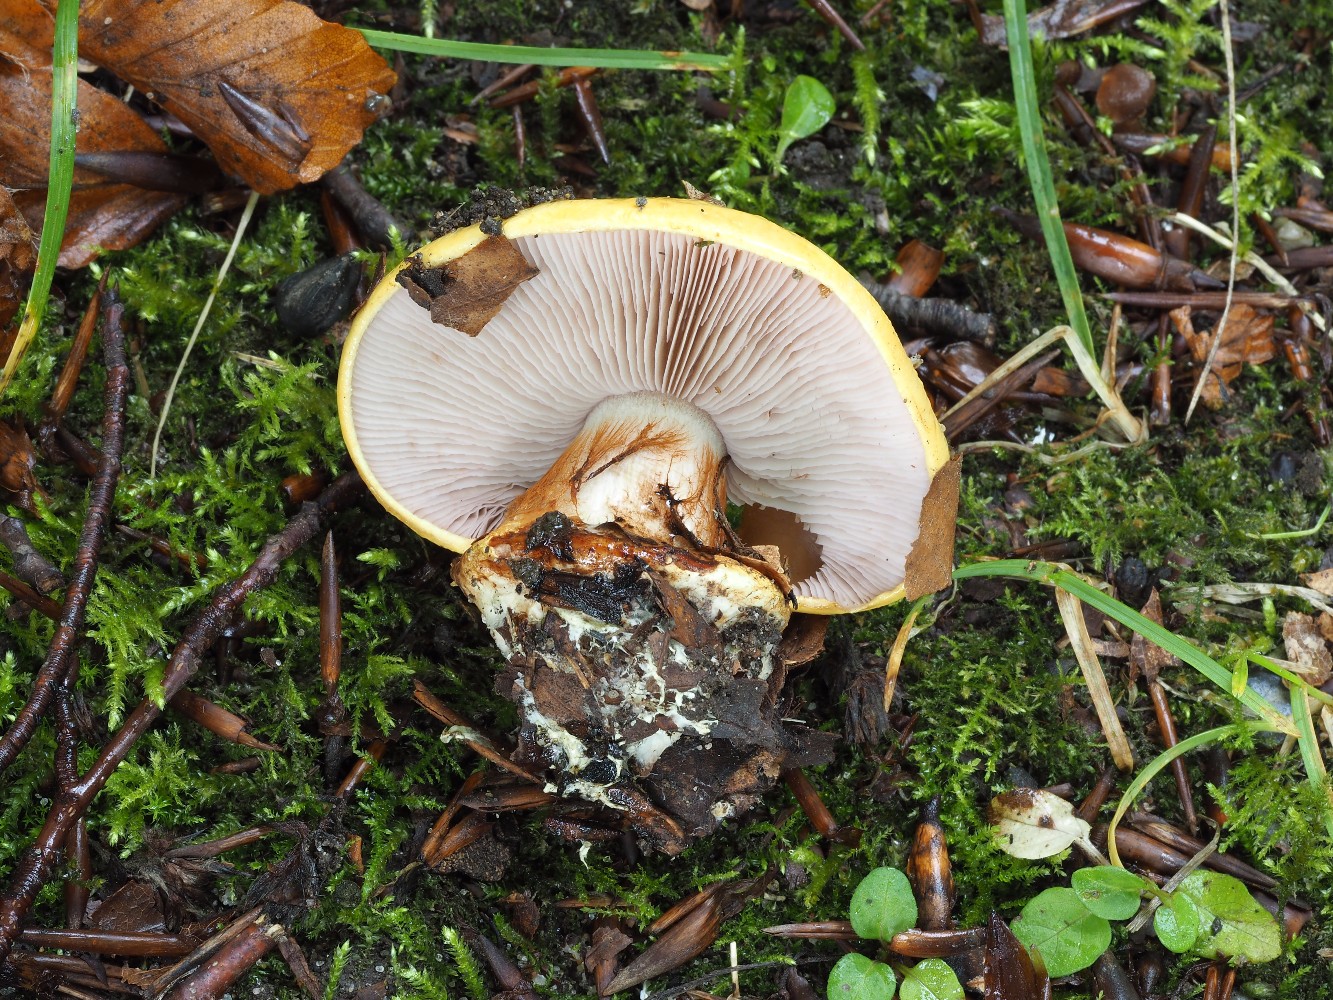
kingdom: Fungi
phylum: Basidiomycota
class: Agaricomycetes
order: Agaricales
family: Cortinariaceae
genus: Calonarius
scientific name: Calonarius callochrous
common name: lillabladet slørhat
